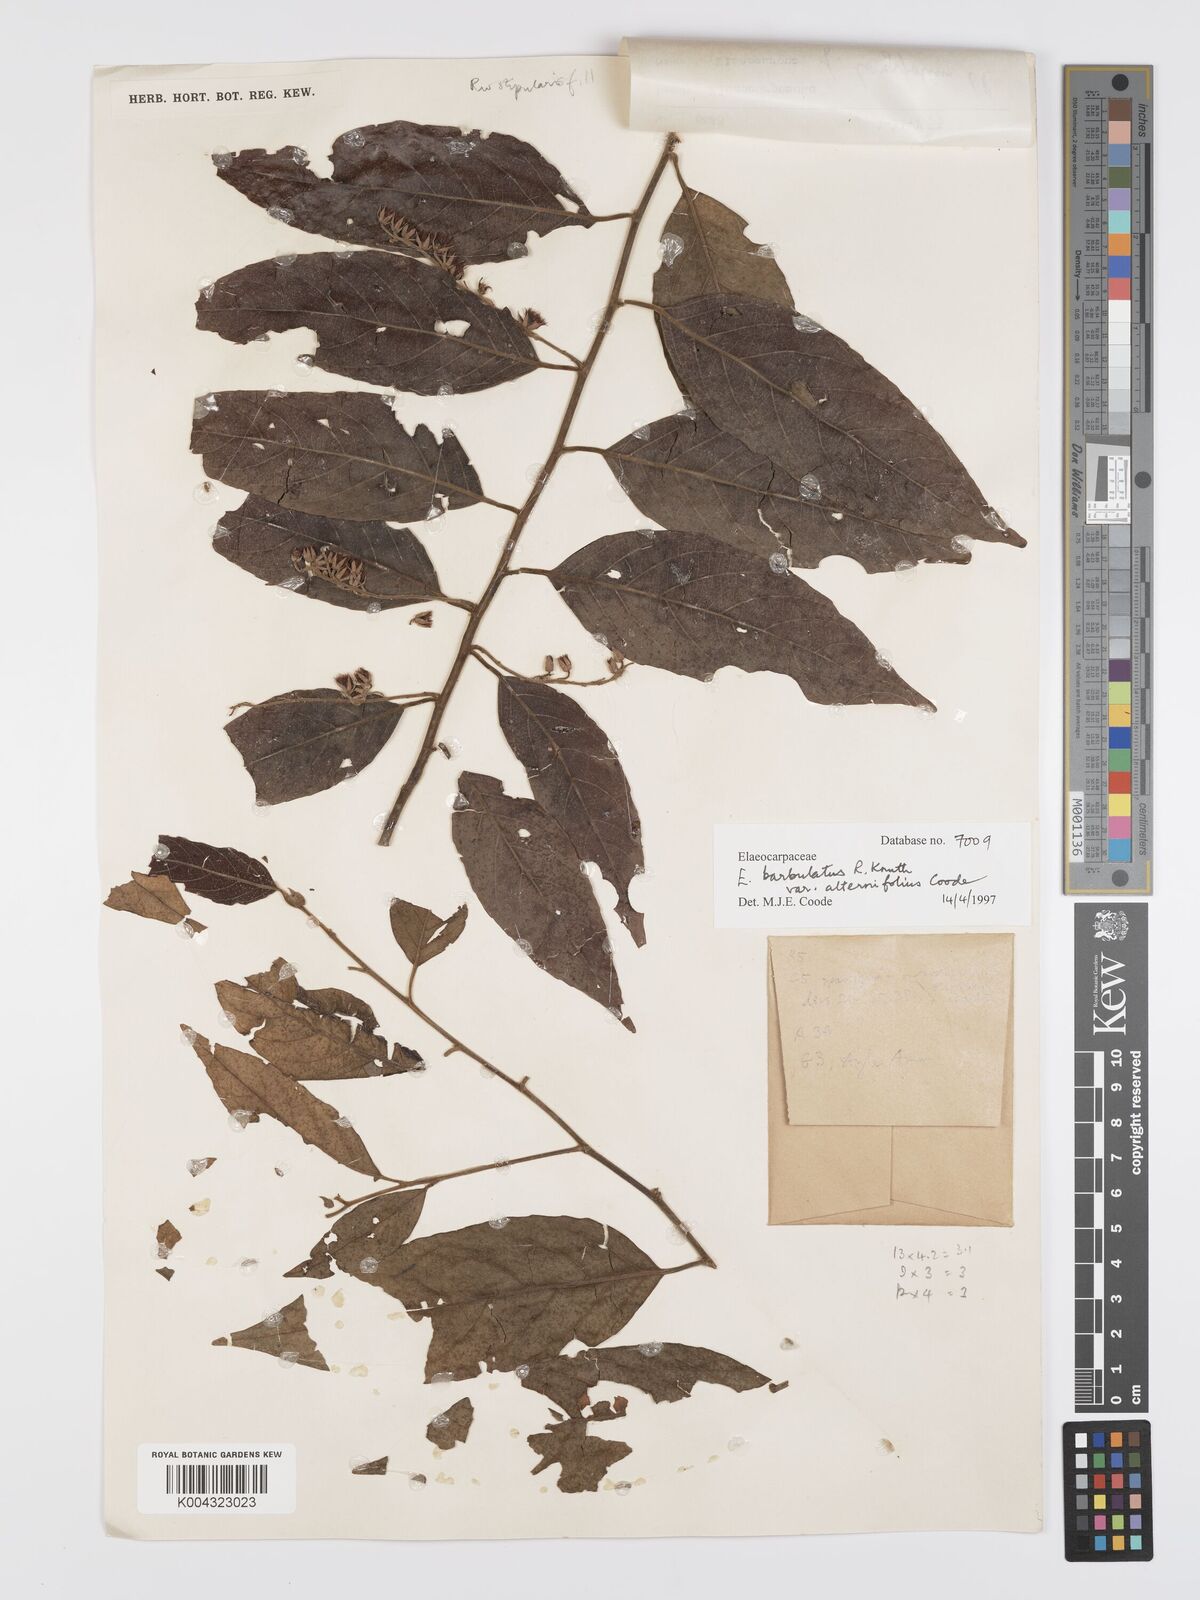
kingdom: Plantae
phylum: Tracheophyta
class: Magnoliopsida
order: Oxalidales
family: Elaeocarpaceae
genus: Elaeocarpus
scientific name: Elaeocarpus barbulatus
